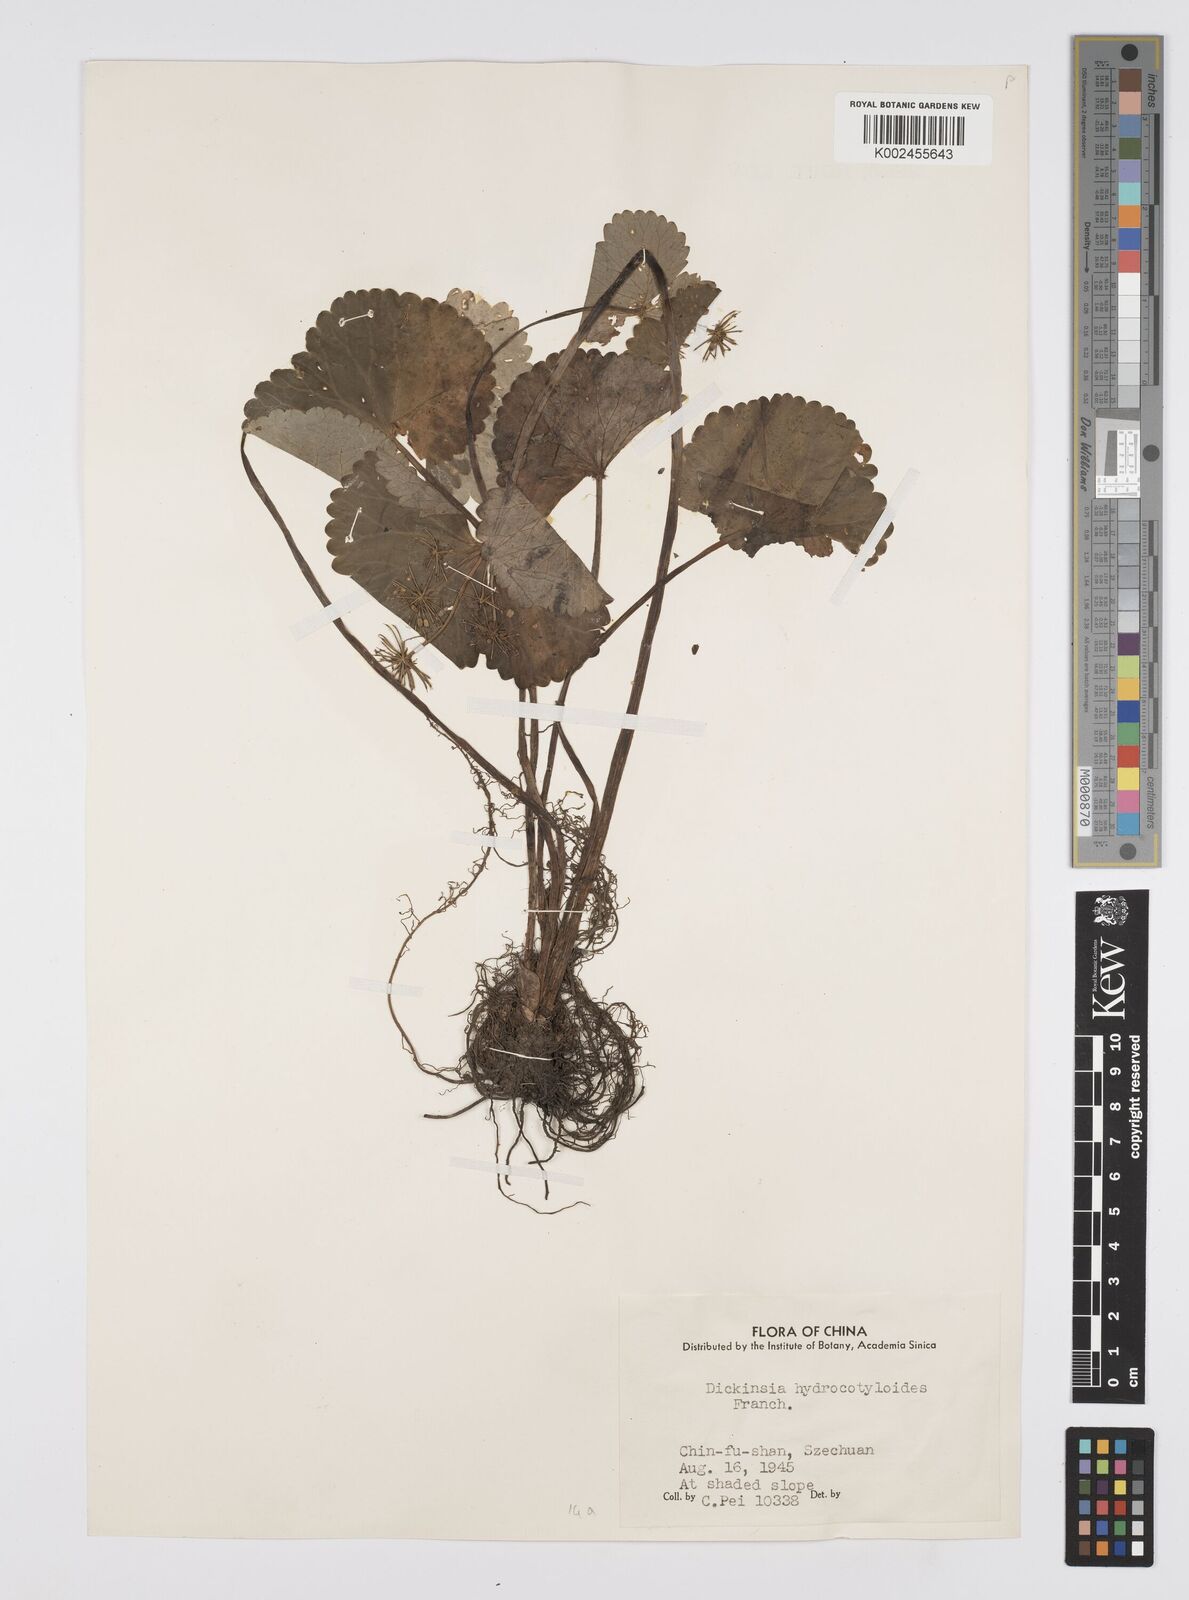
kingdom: Plantae
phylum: Tracheophyta
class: Magnoliopsida
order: Apiales
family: Apiaceae
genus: Dickinsia
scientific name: Dickinsia hydrocotyloides
